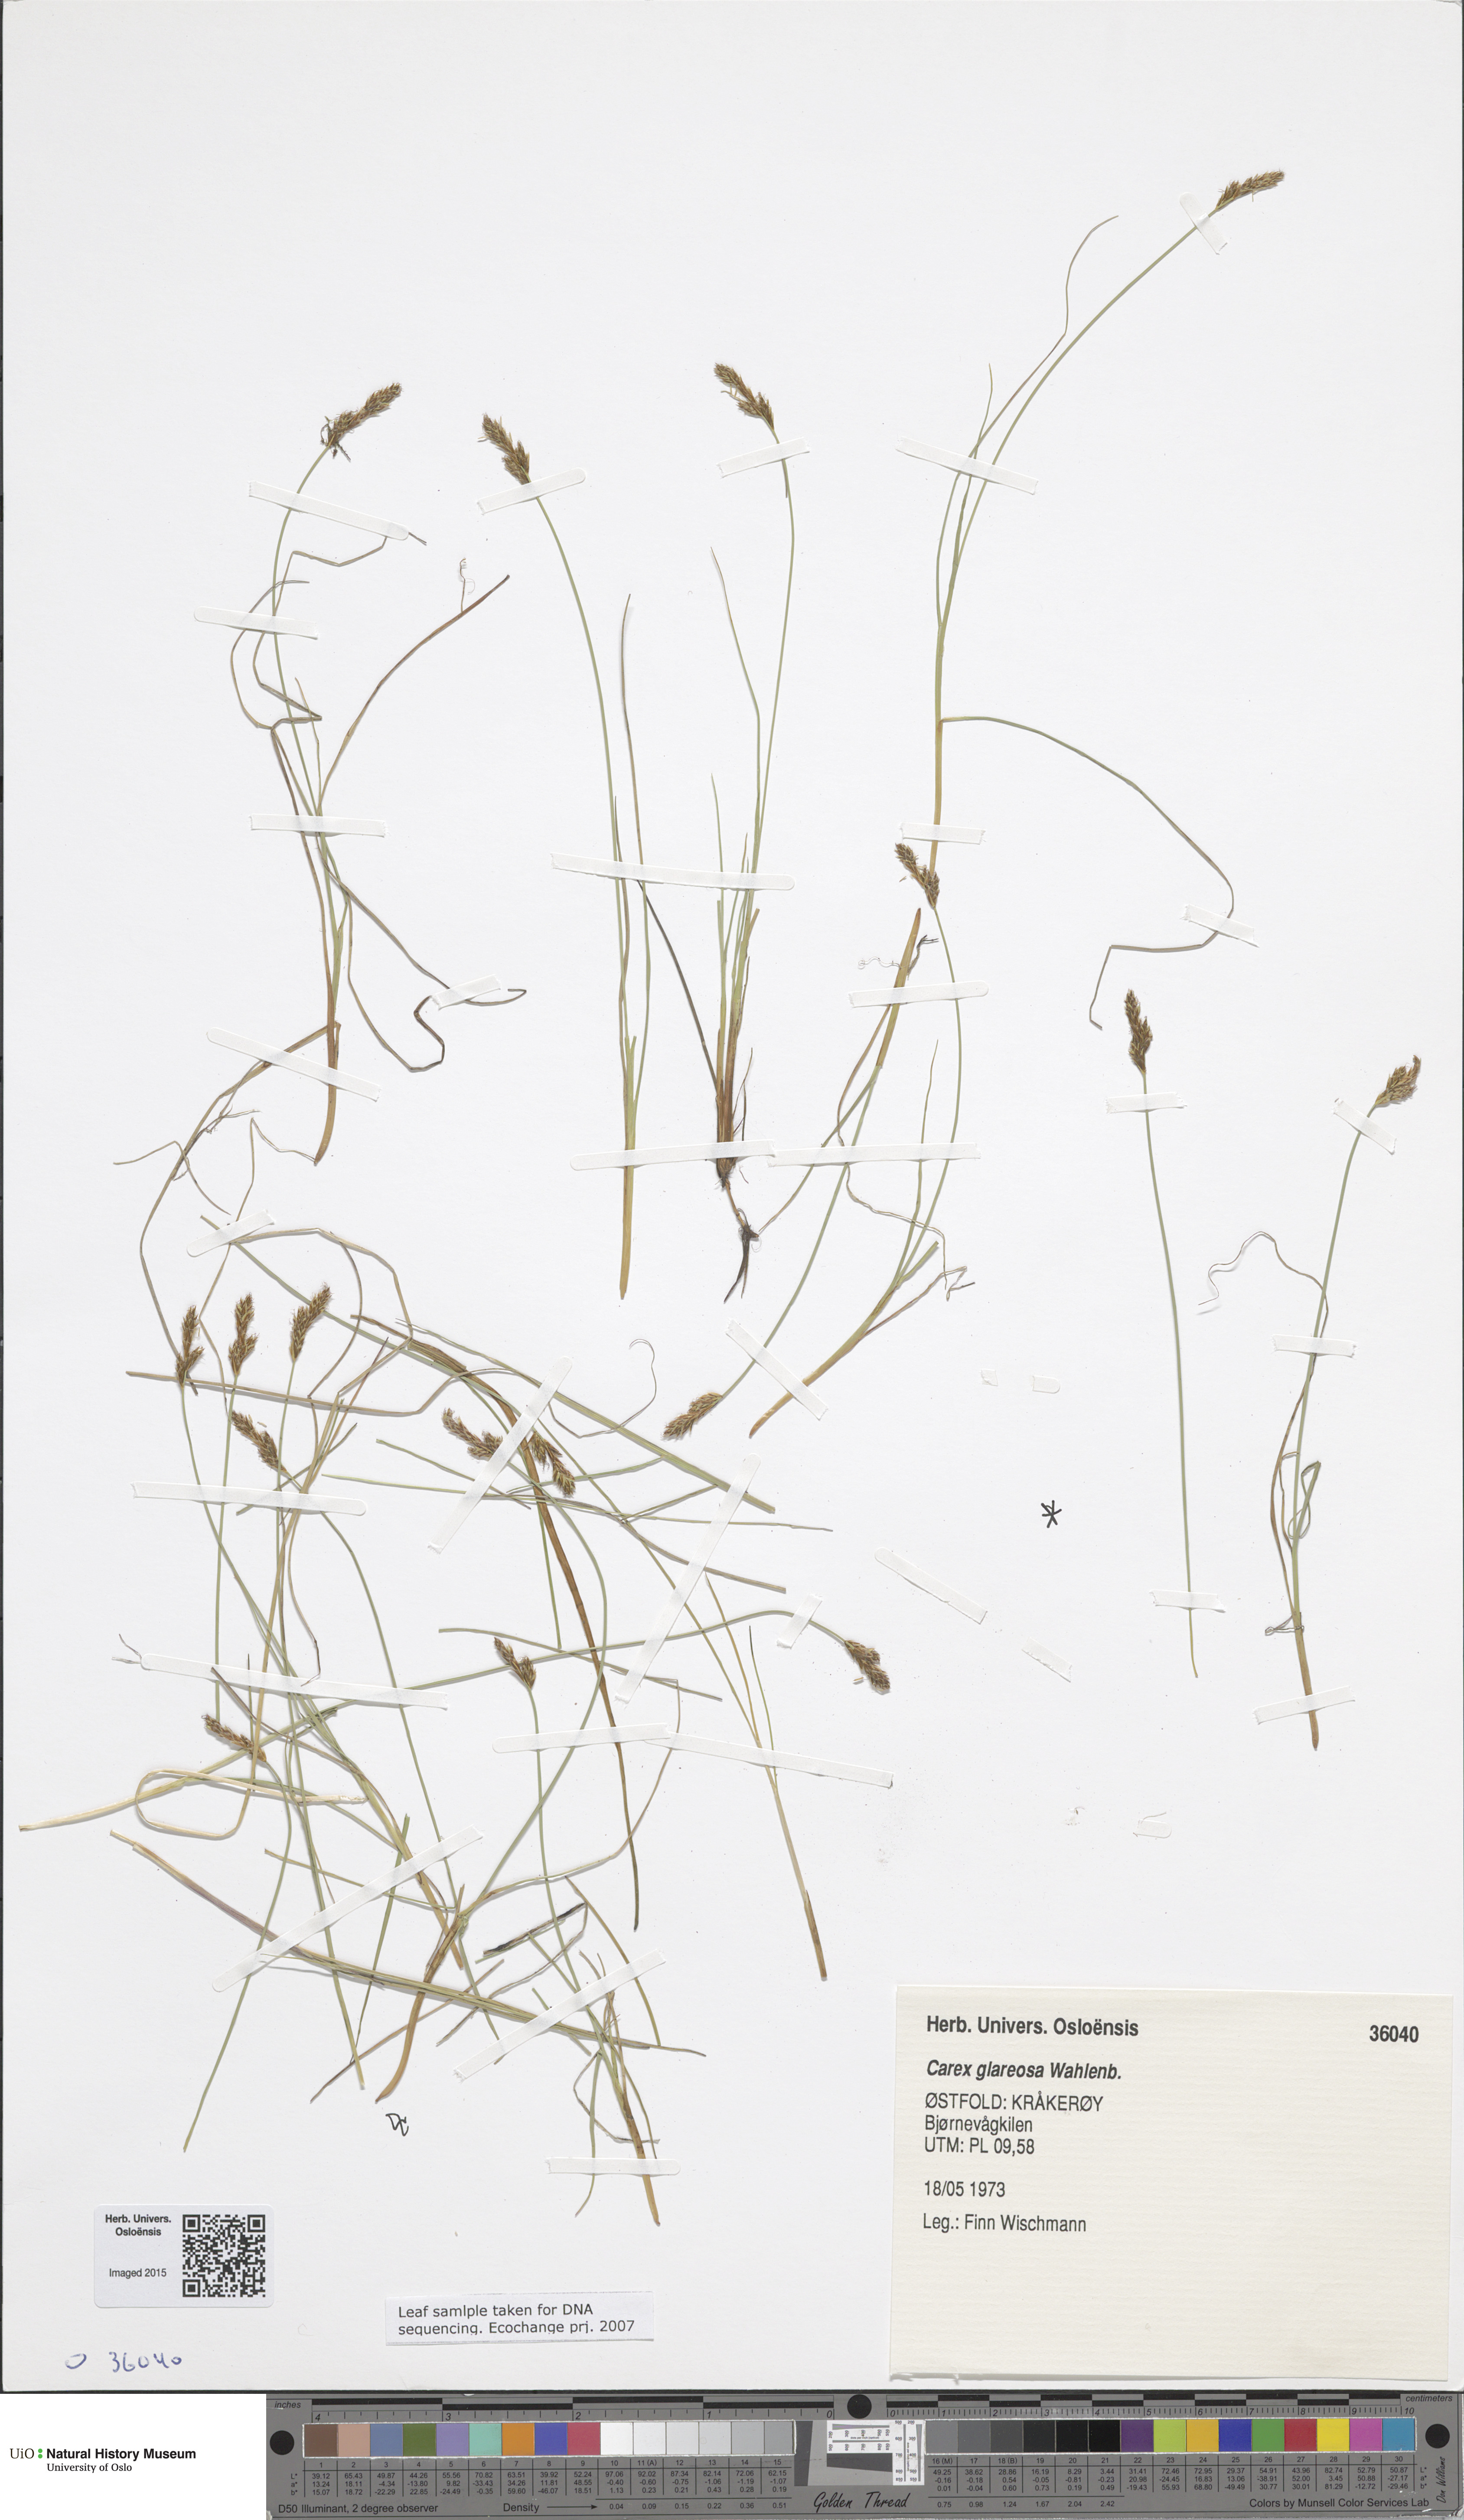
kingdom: Plantae
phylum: Tracheophyta
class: Liliopsida
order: Poales
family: Cyperaceae
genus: Carex
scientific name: Carex glareosa
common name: Clustered sedge
